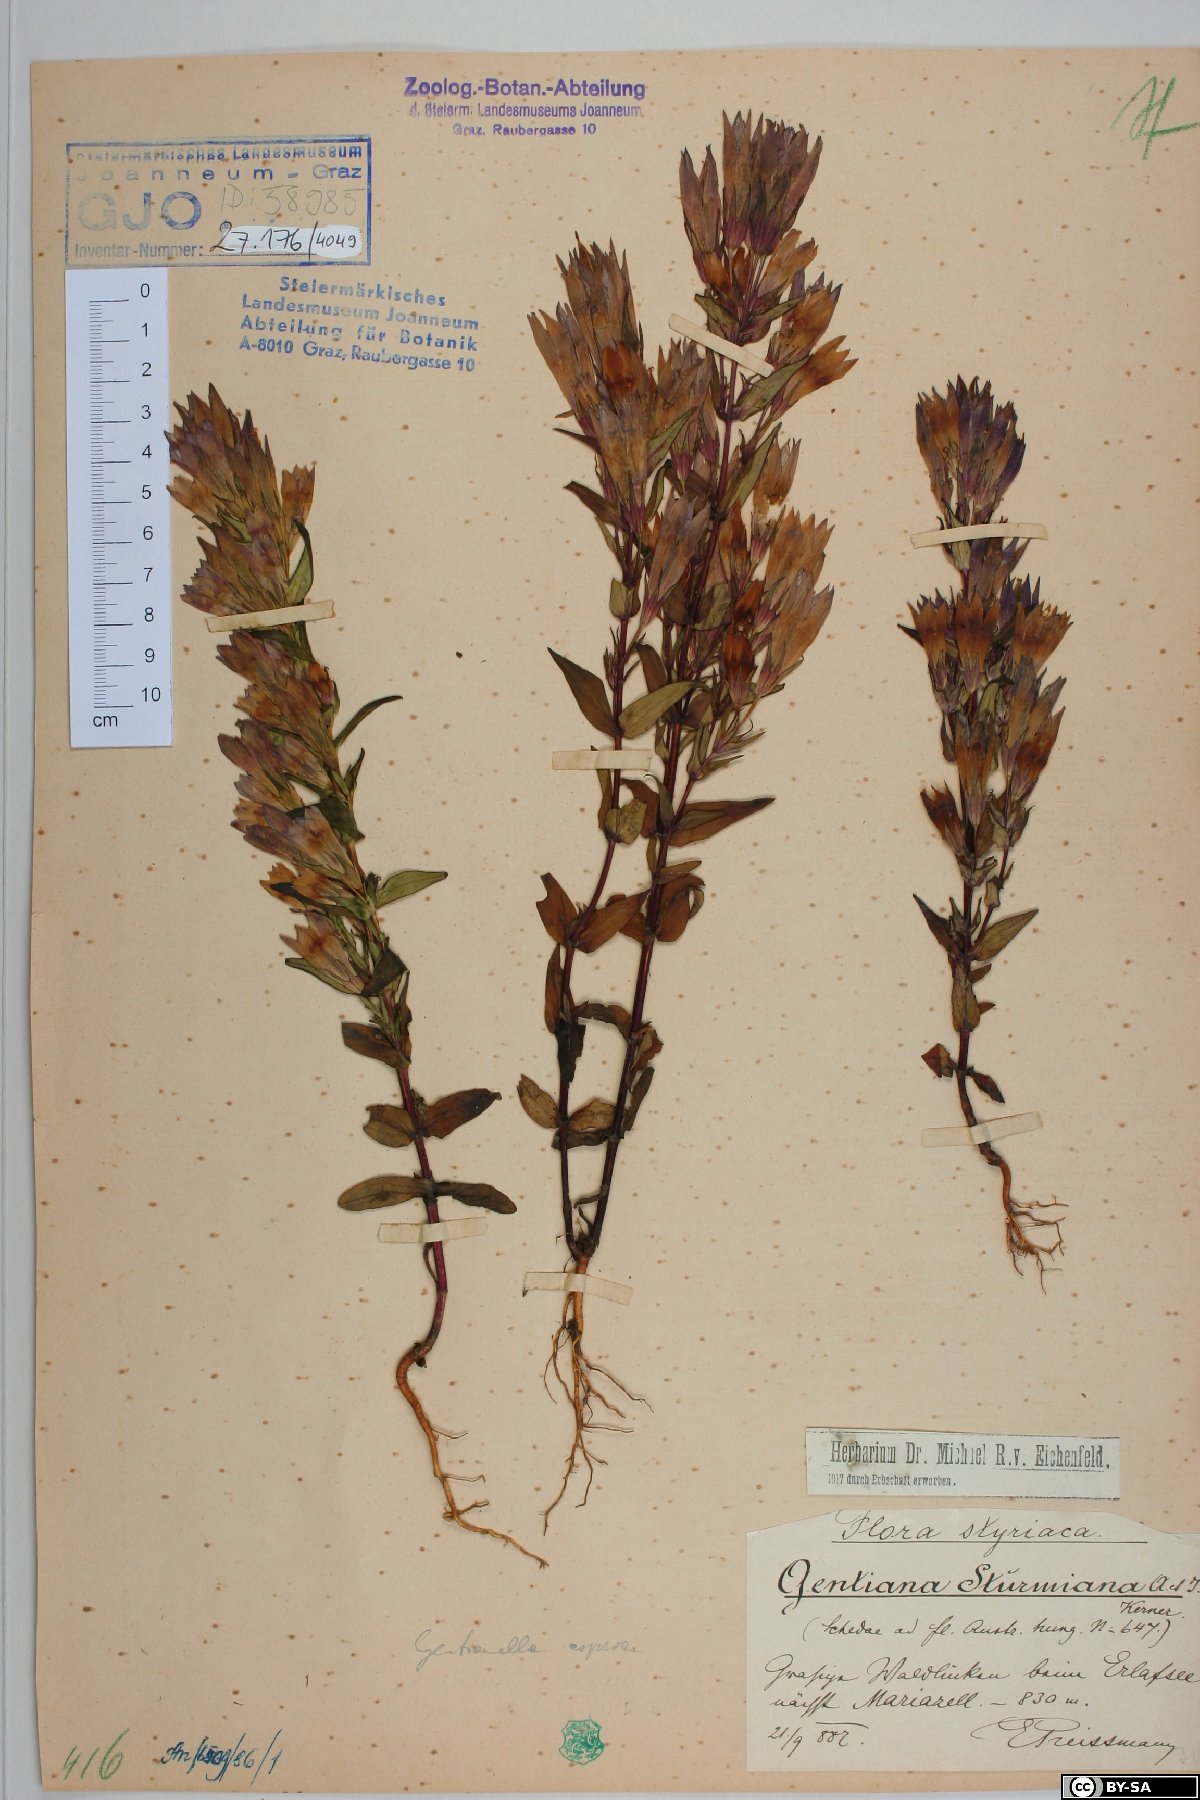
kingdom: Plantae
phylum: Tracheophyta
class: Magnoliopsida
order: Gentianales
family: Gentianaceae
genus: Gentianella
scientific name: Gentianella obtusifolia
